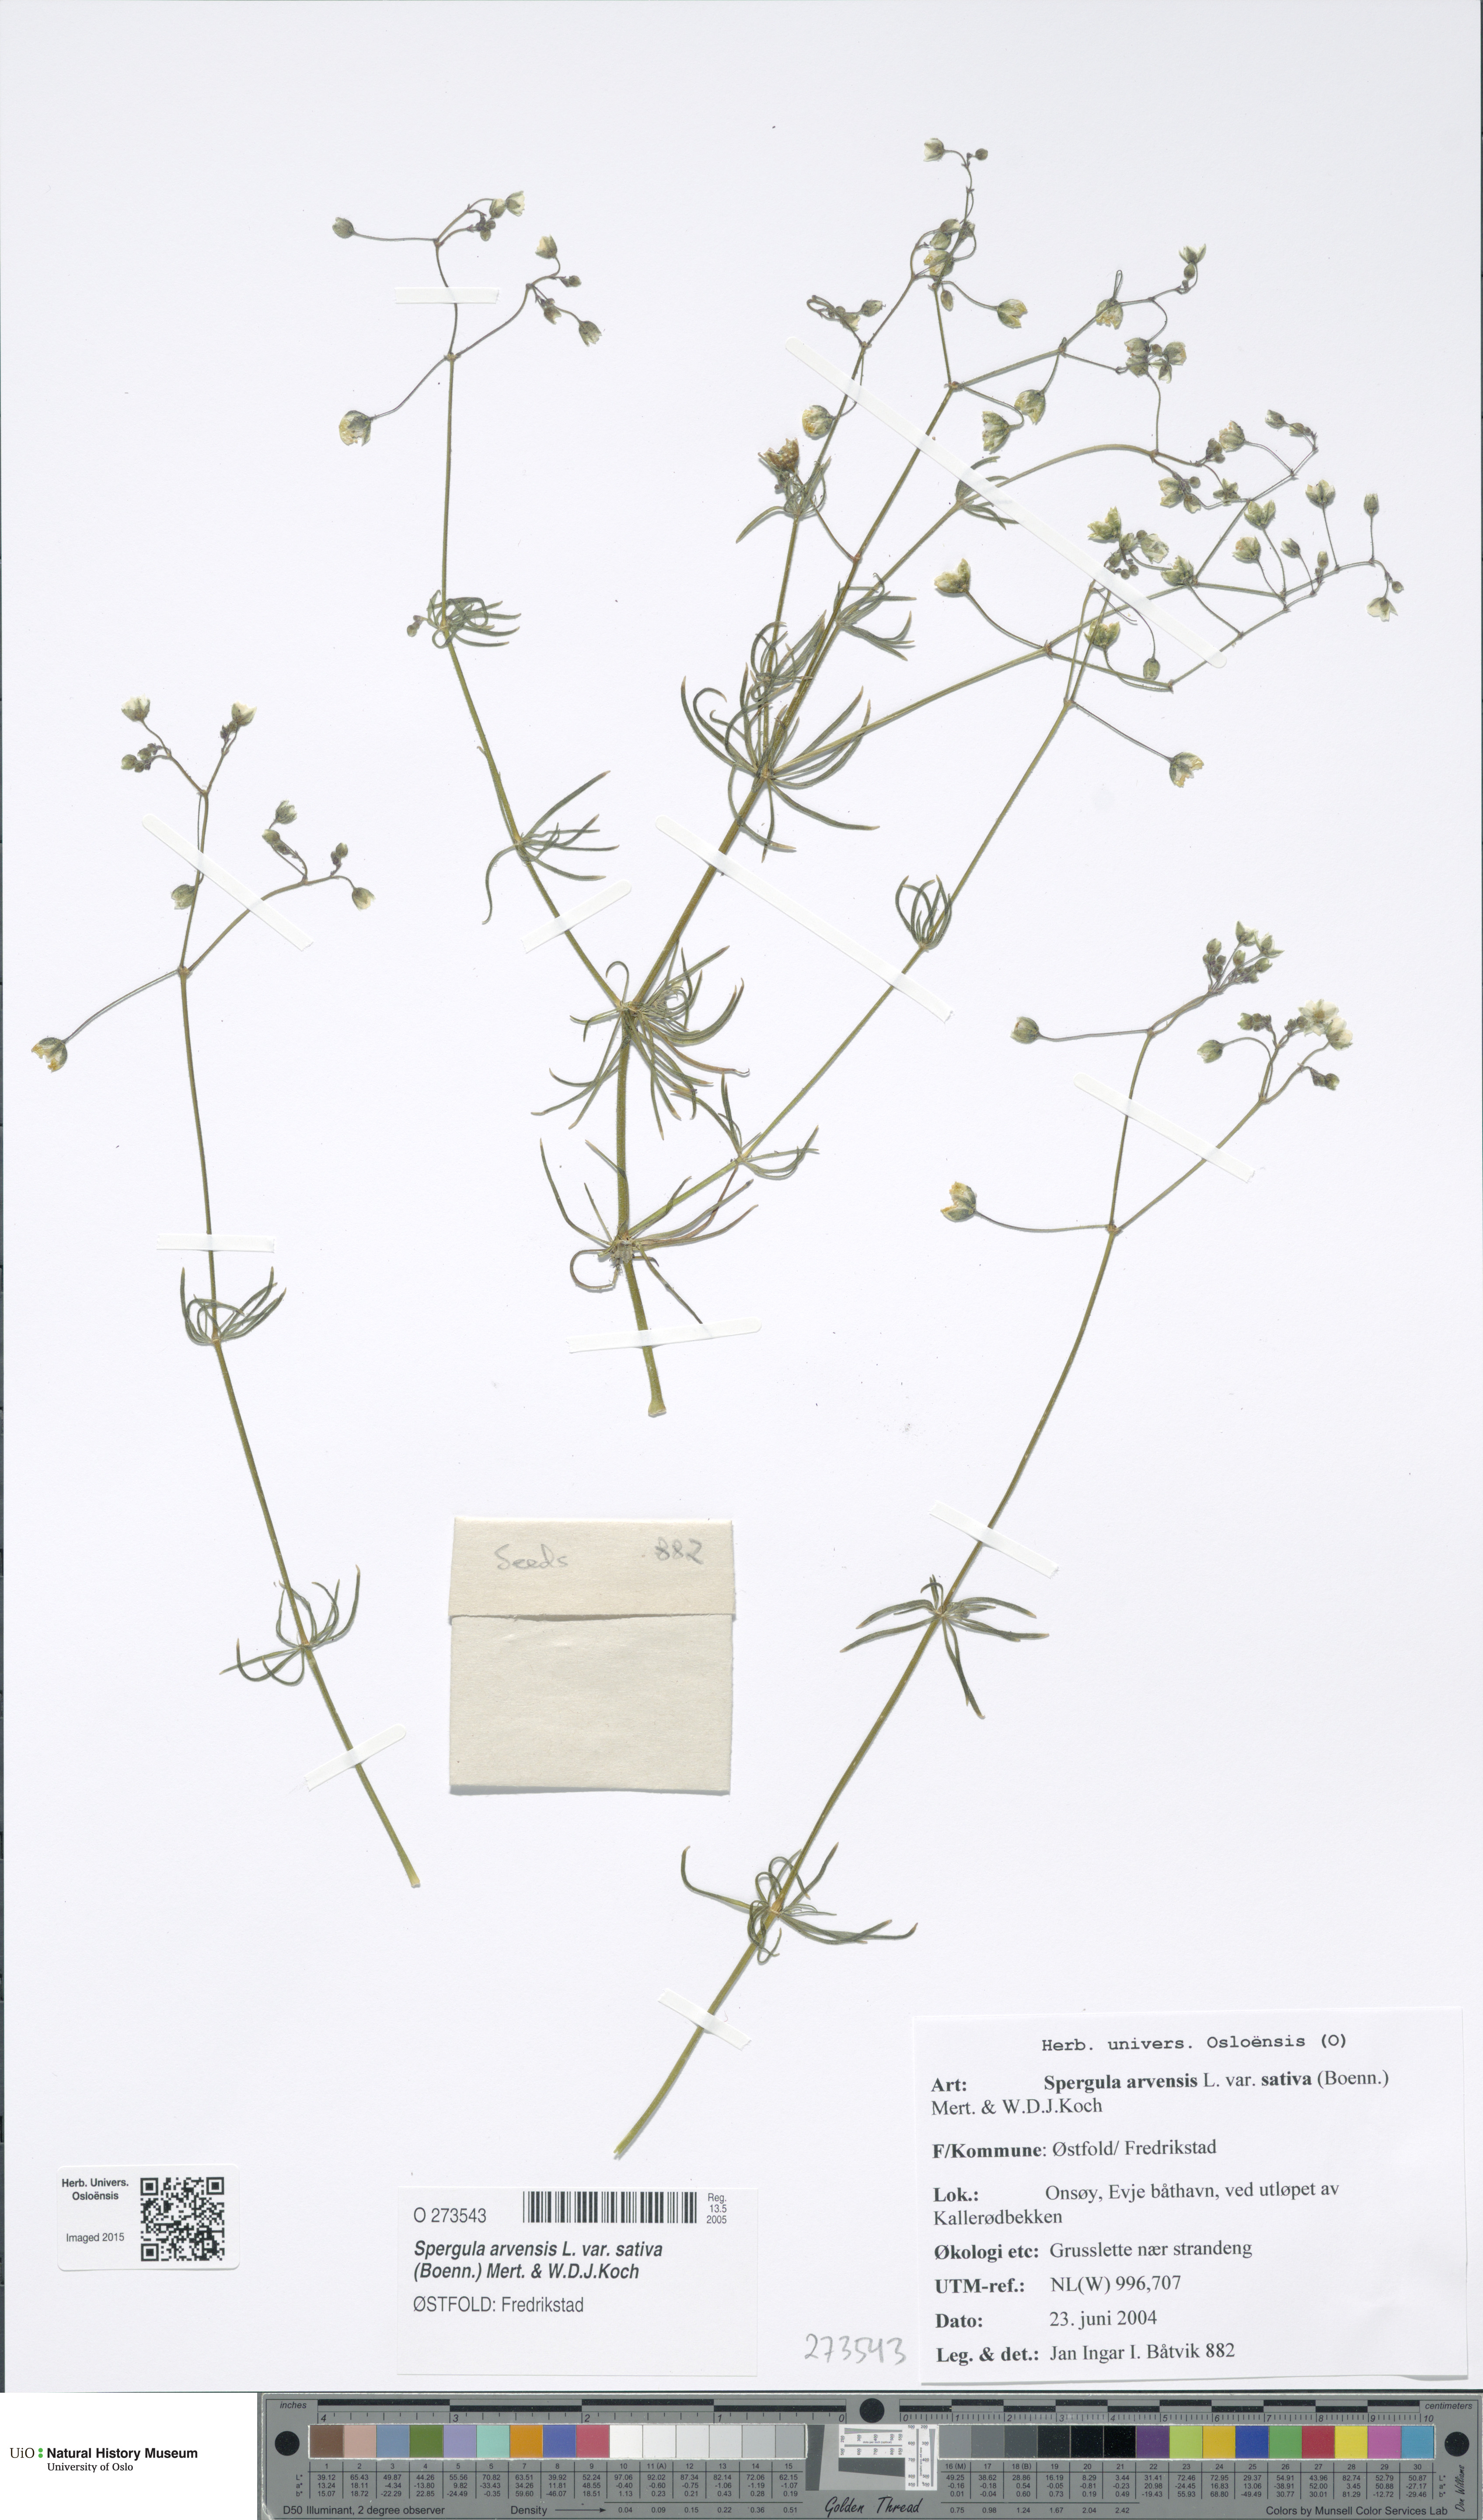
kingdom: Plantae
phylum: Tracheophyta
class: Magnoliopsida
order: Caryophyllales
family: Caryophyllaceae
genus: Spergula
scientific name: Spergula arvensis
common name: Corn spurrey
